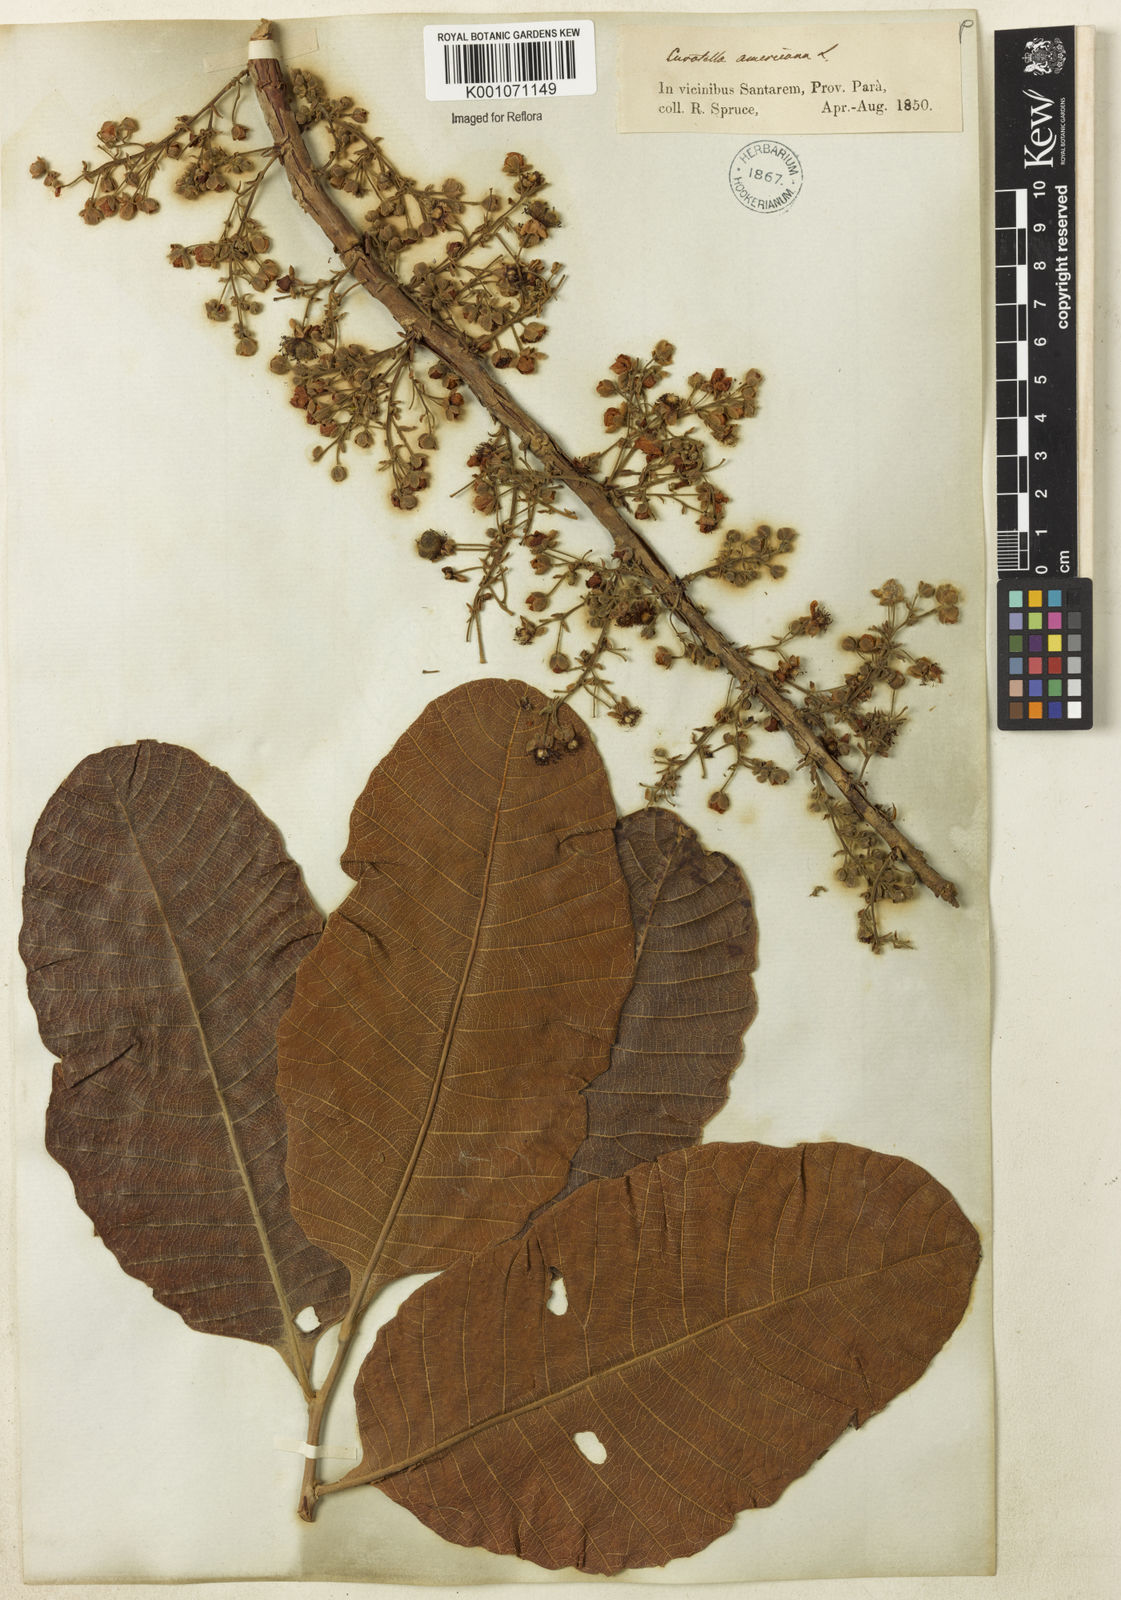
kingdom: Plantae
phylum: Tracheophyta
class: Magnoliopsida
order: Dilleniales
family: Dilleniaceae
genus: Curatella
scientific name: Curatella americana
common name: Sandpaper tree
